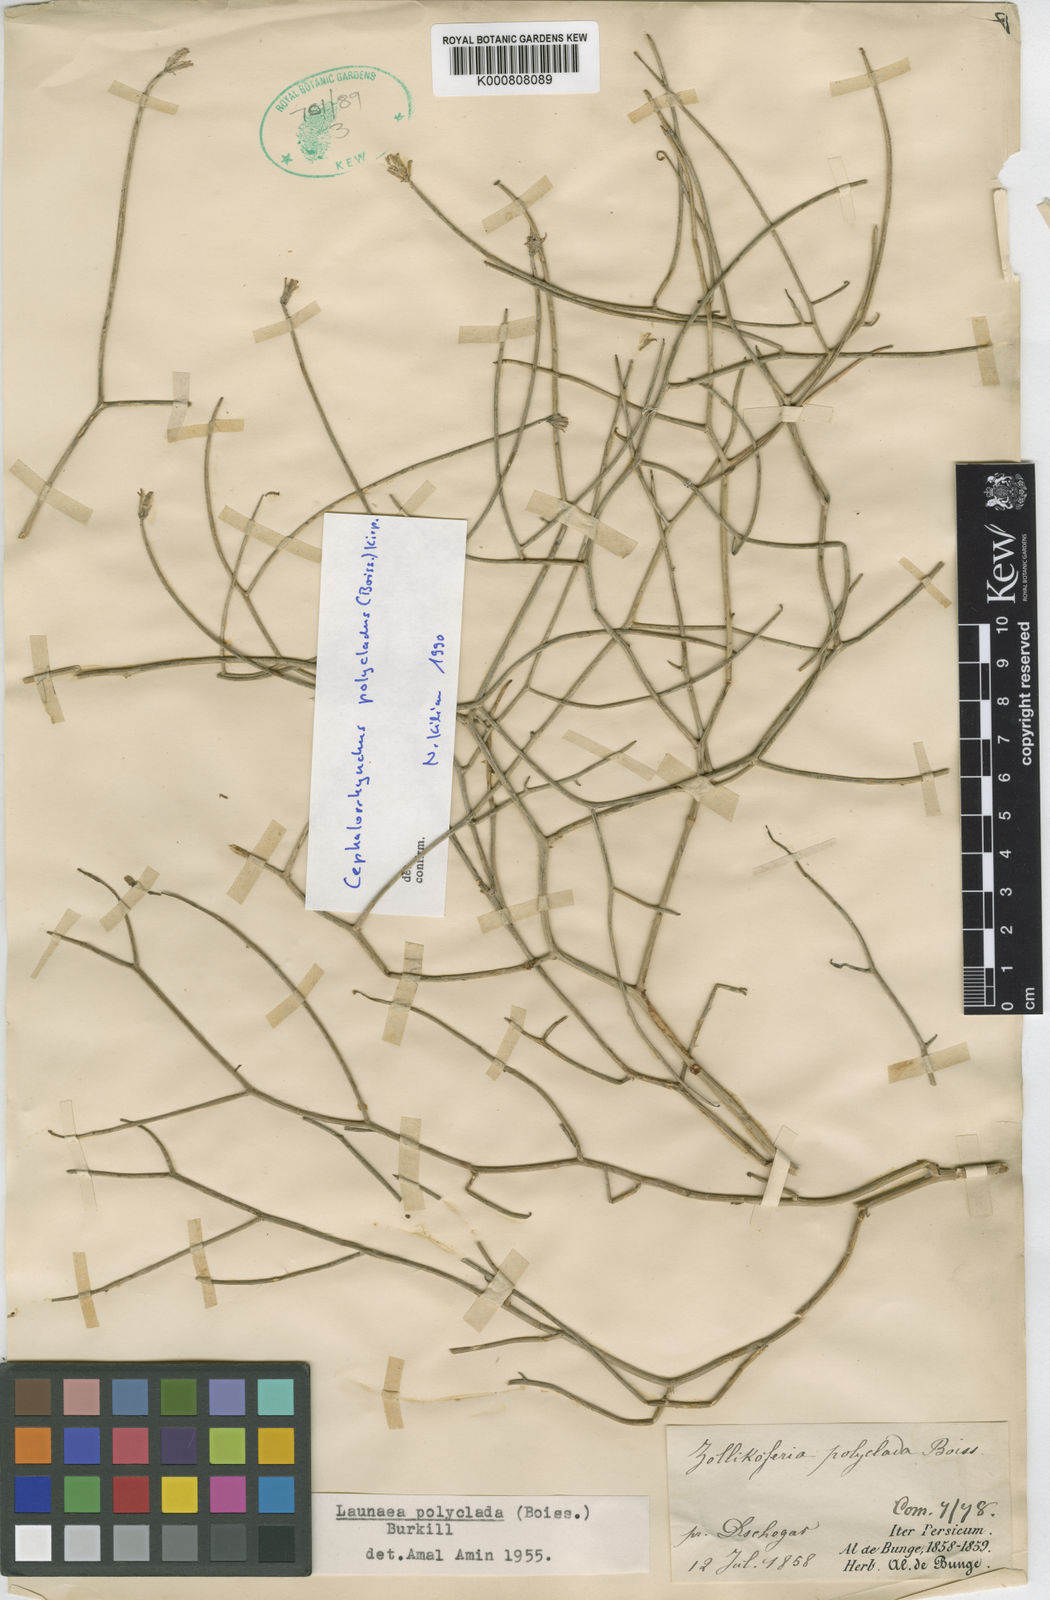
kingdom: Plantae
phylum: Tracheophyta
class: Magnoliopsida
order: Asterales
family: Asteraceae
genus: Melanoseris
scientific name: Melanoseris polyclada
